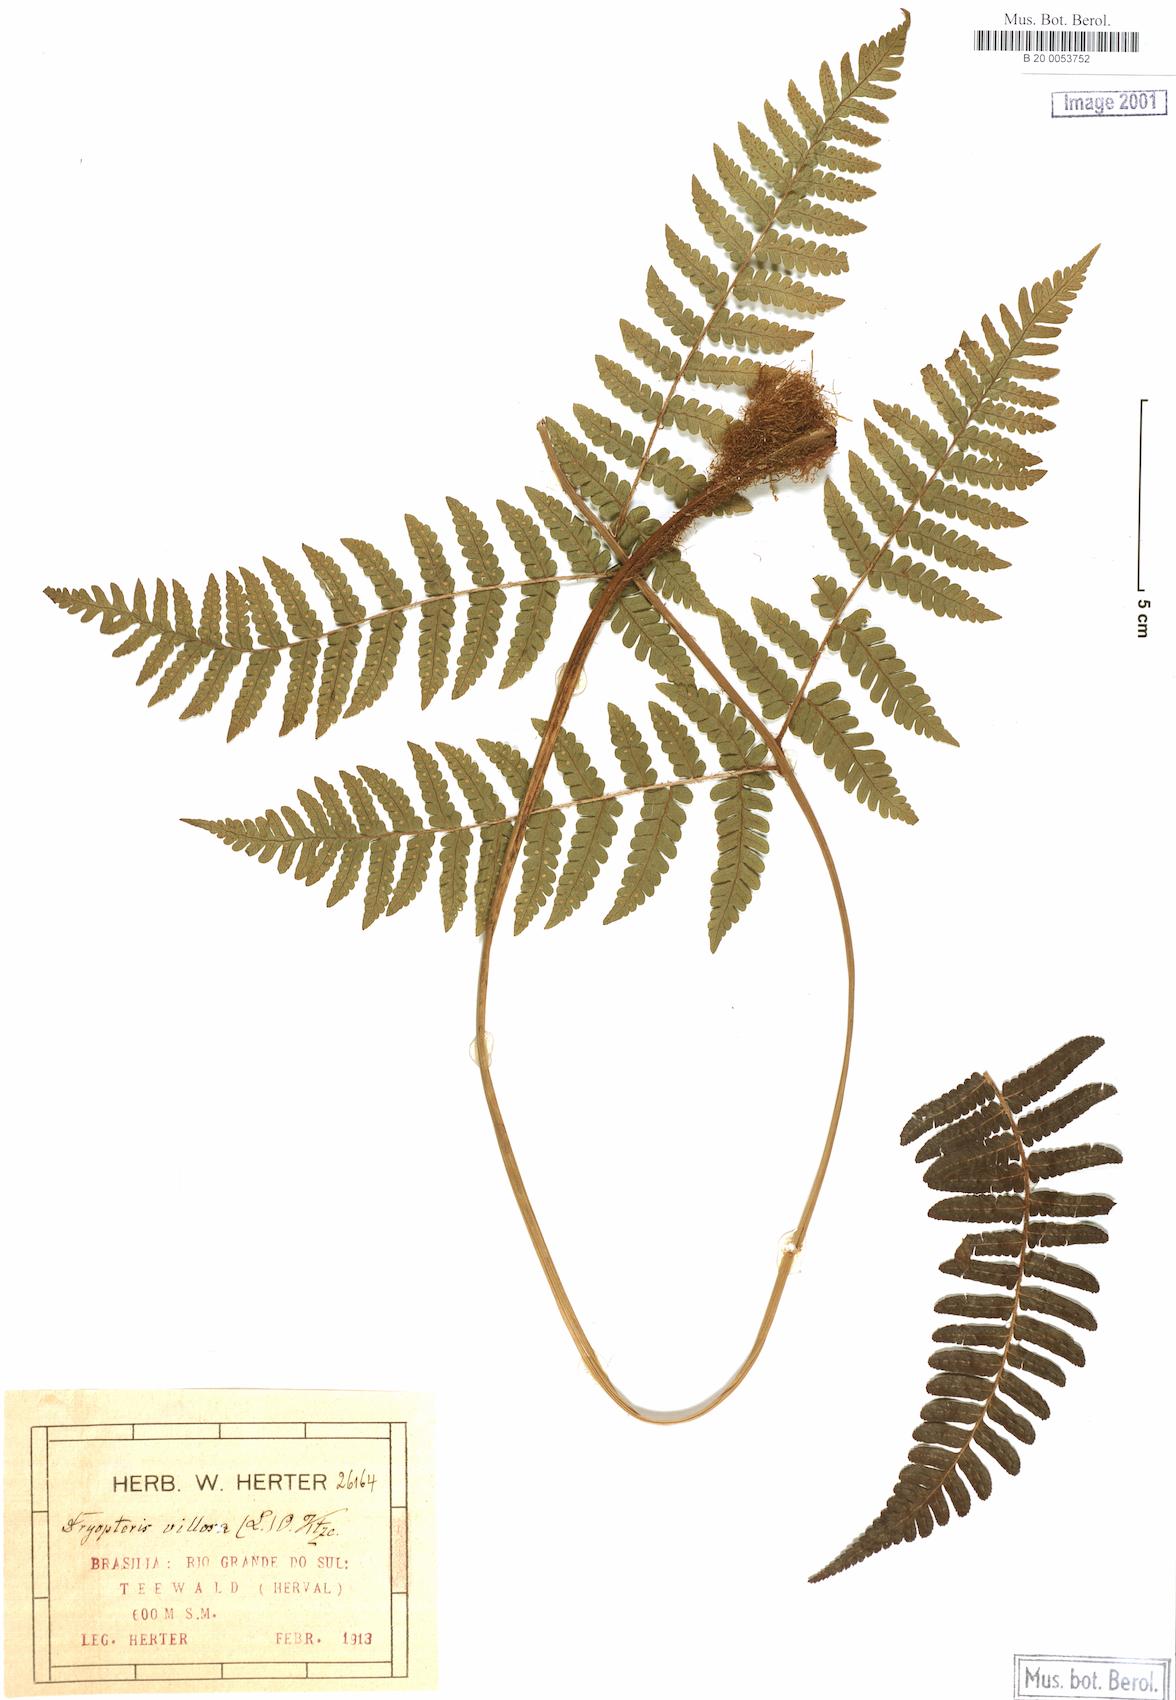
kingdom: Plantae
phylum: Tracheophyta
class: Polypodiopsida
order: Polypodiales
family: Dryopteridaceae
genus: Megalastrum
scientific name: Megalastrum villosum
